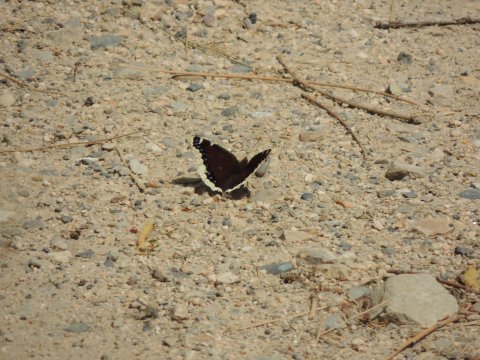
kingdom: Animalia
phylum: Arthropoda
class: Insecta
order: Lepidoptera
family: Nymphalidae
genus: Nymphalis
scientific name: Nymphalis antiopa
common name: Mourning Cloak
